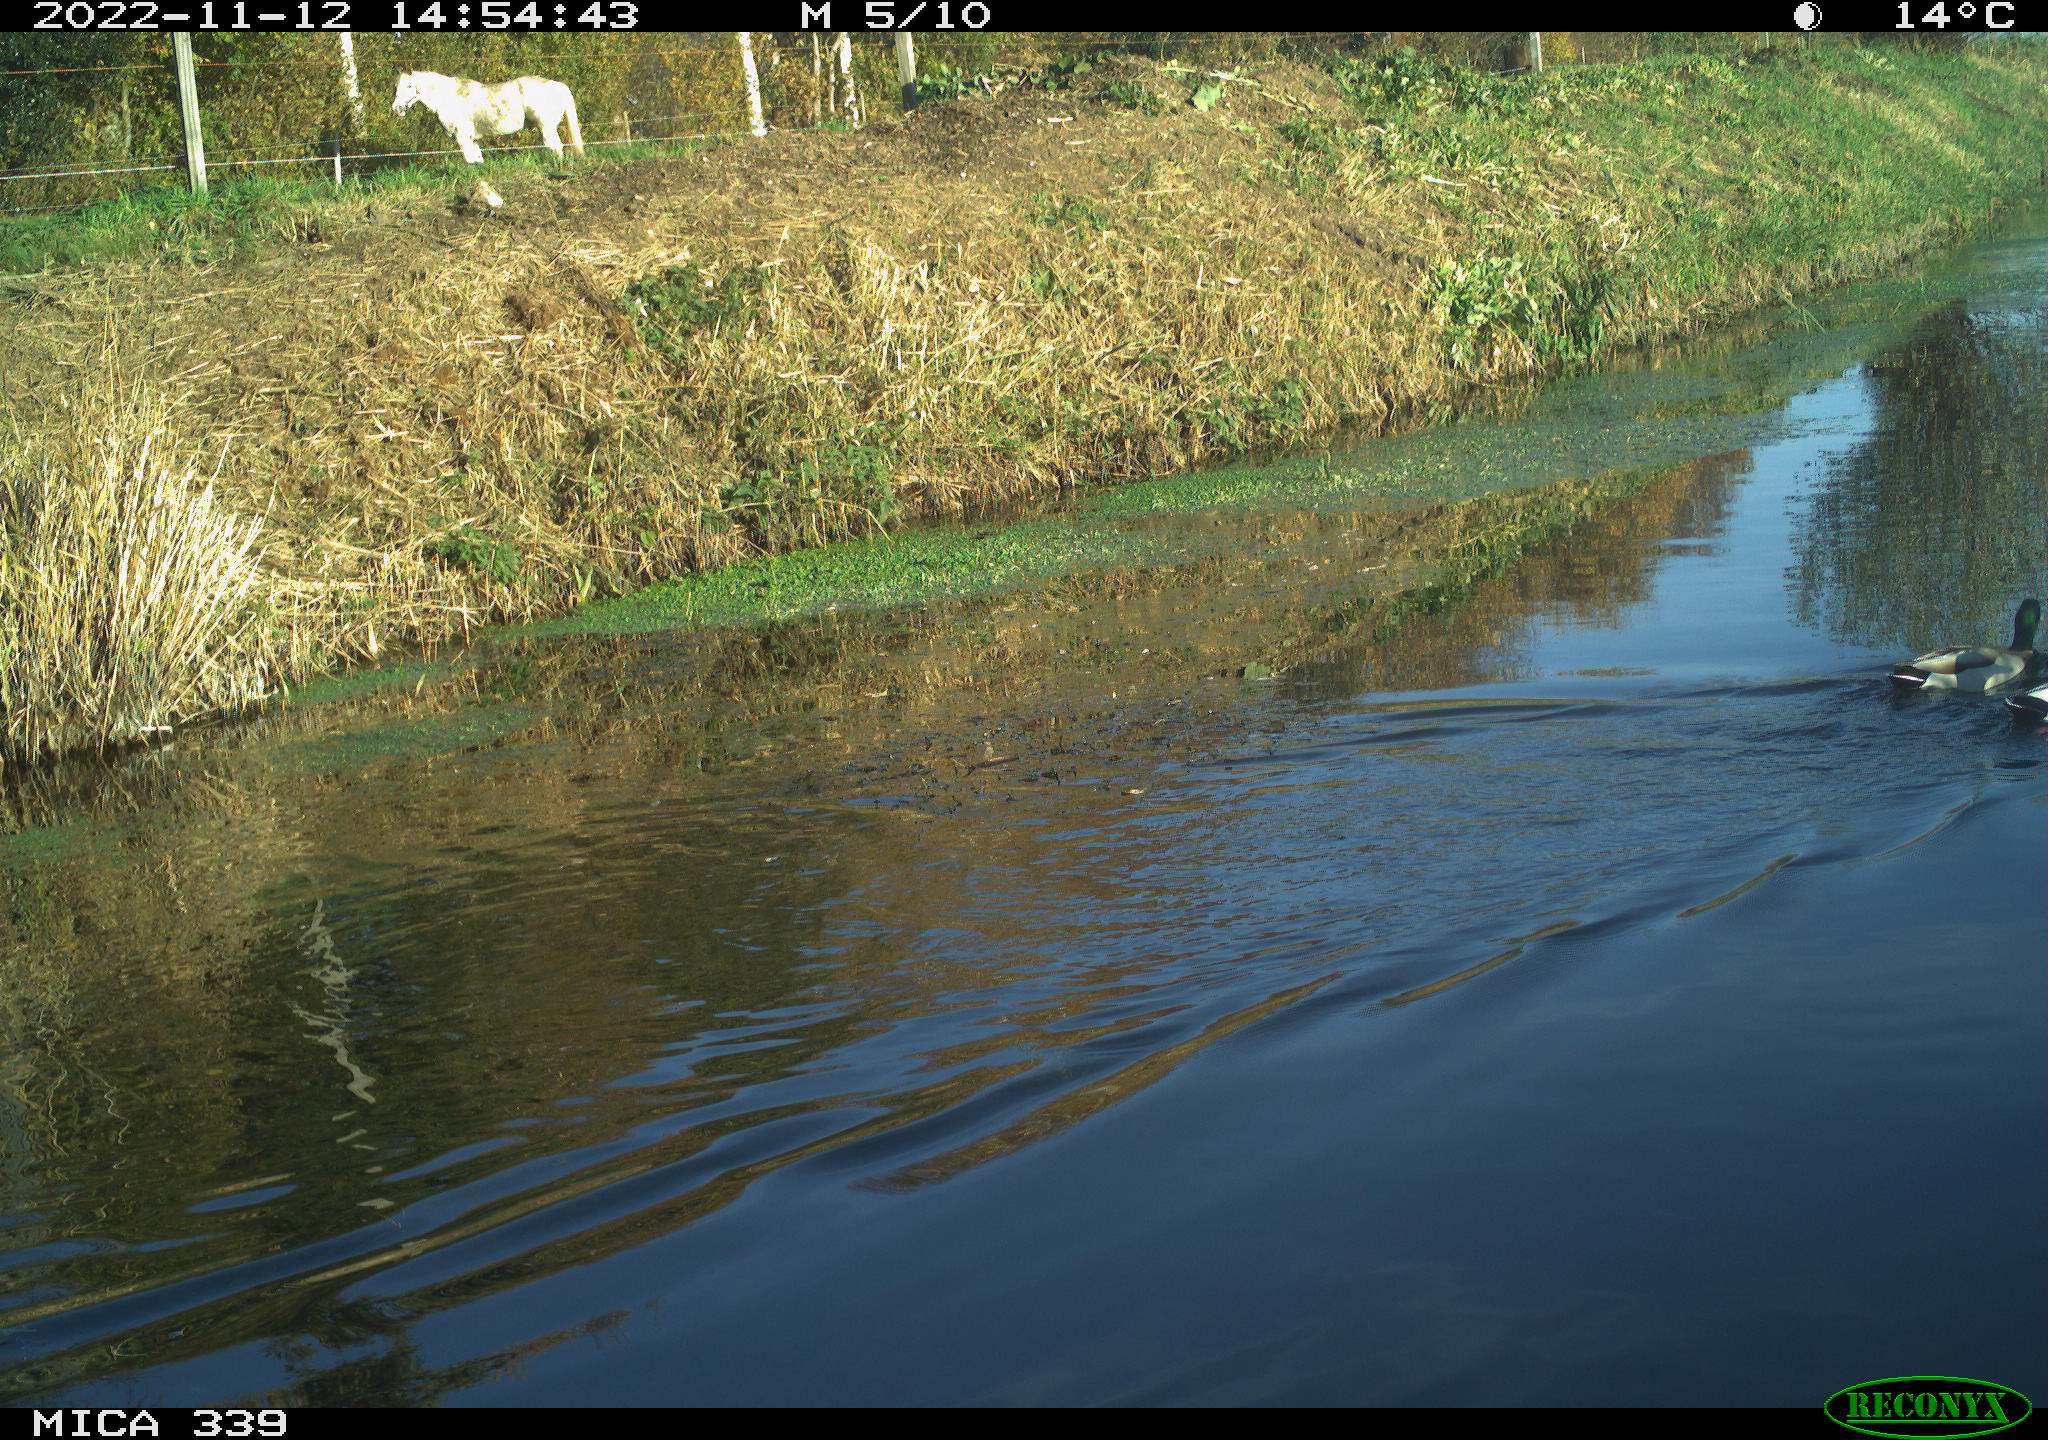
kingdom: Animalia
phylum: Chordata
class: Aves
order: Anseriformes
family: Anatidae
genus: Anas
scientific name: Anas platyrhynchos
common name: Mallard
